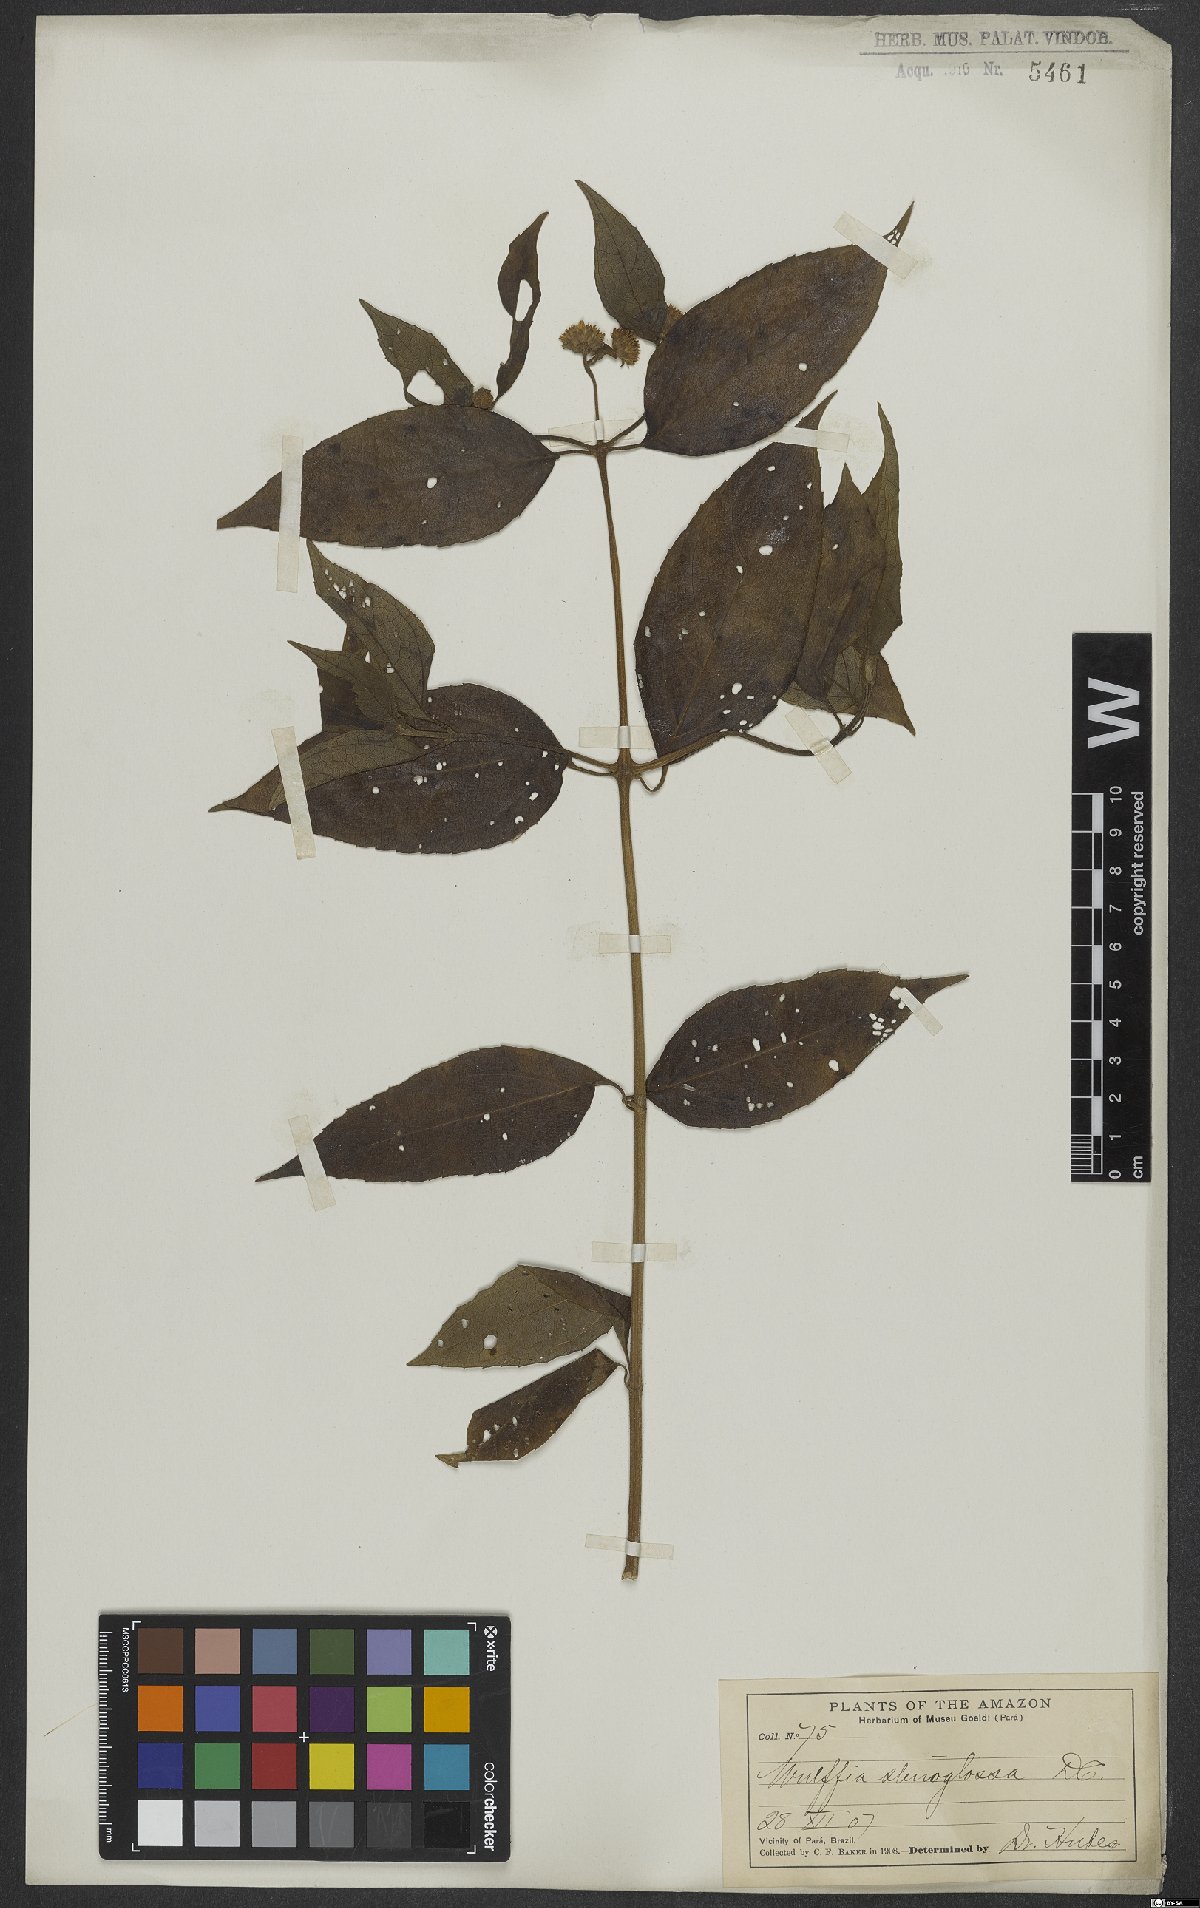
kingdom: Plantae
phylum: Tracheophyta
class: Magnoliopsida
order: Asterales
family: Asteraceae
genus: Tilesia
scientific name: Tilesia
